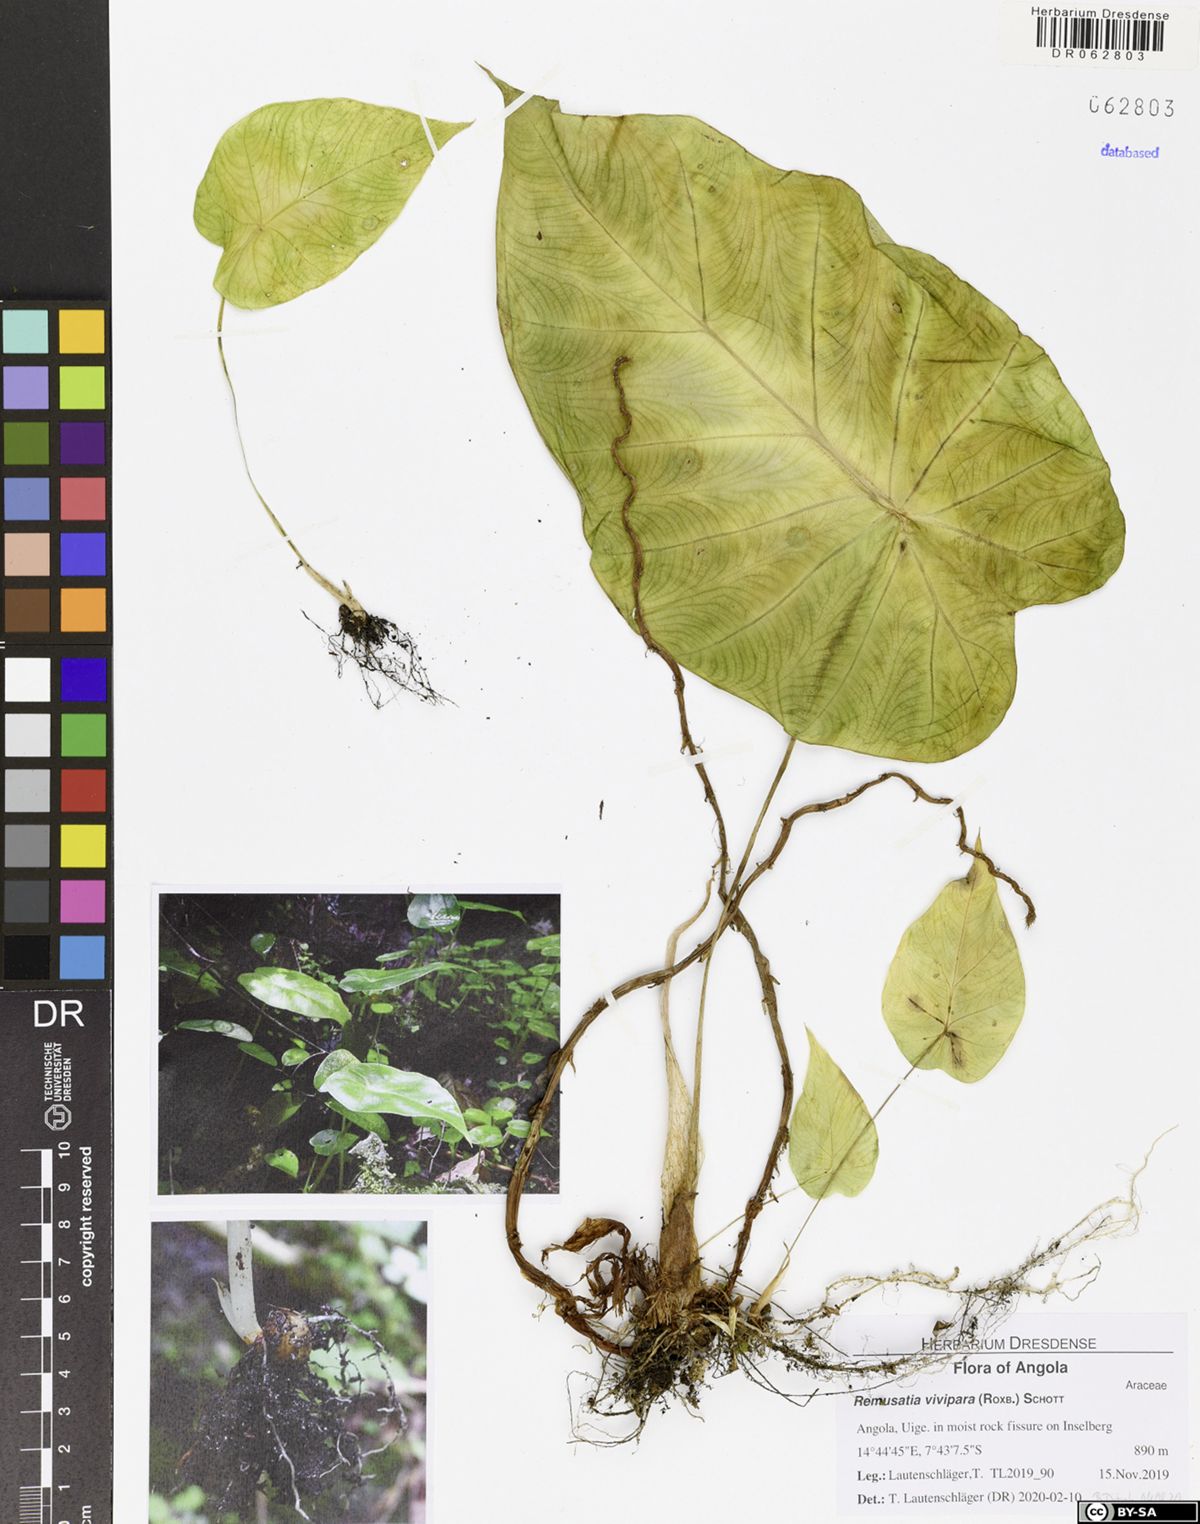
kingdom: Plantae
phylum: Tracheophyta
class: Liliopsida
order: Alismatales
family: Araceae
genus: Remusatia
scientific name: Remusatia vivipara
